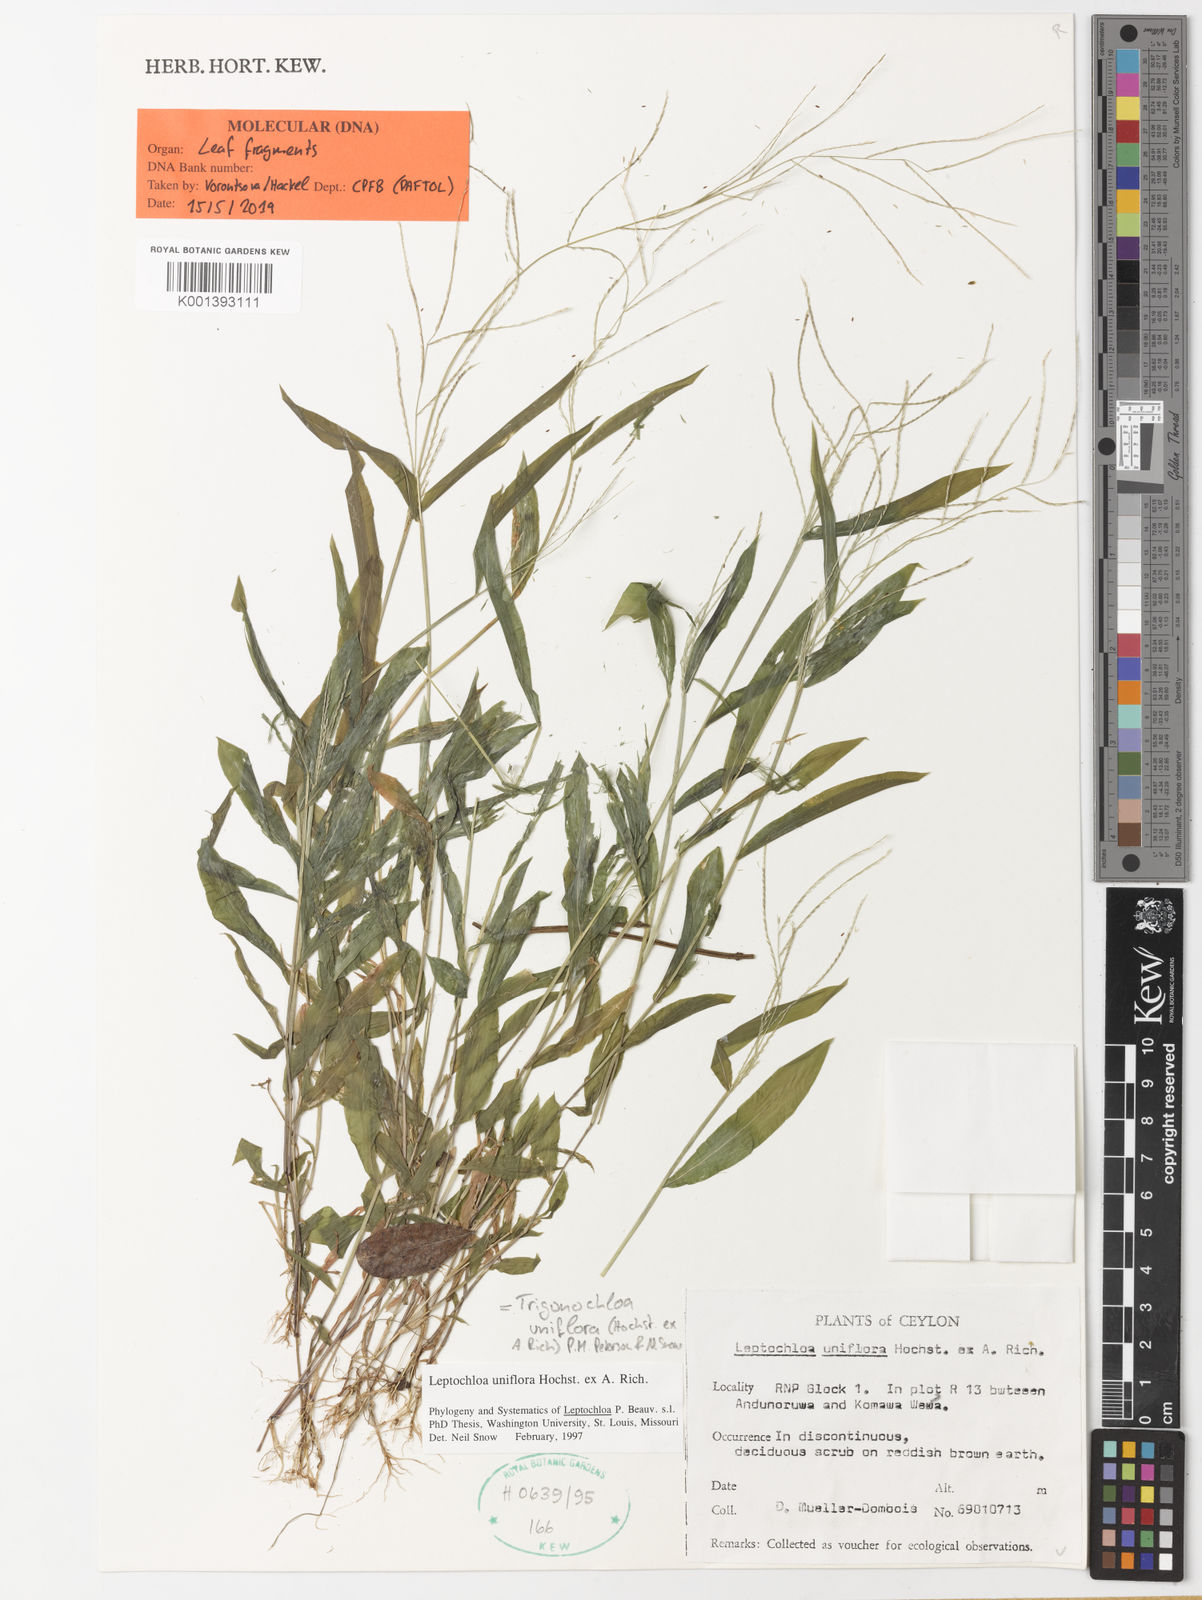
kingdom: Plantae
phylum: Tracheophyta
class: Liliopsida
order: Poales
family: Poaceae
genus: Trigonochloa
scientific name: Trigonochloa uniflora
